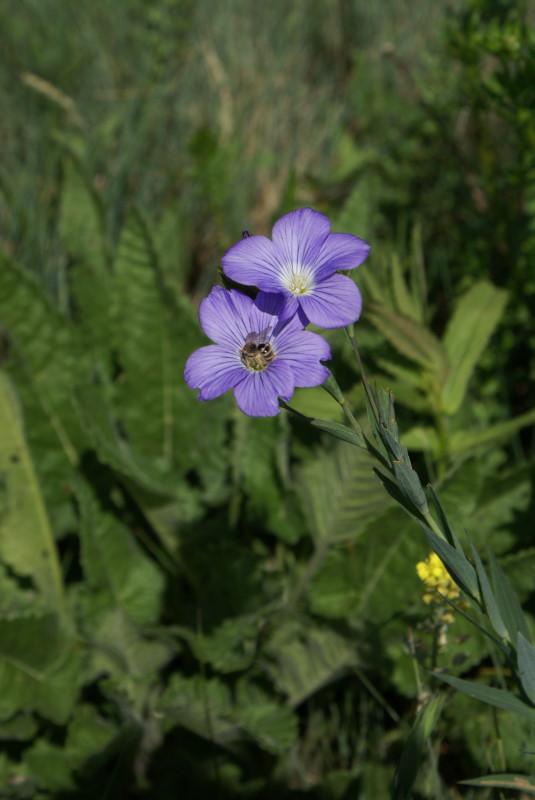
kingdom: Plantae
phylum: Tracheophyta
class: Magnoliopsida
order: Malpighiales
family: Linaceae
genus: Linum
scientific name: Linum nervosum
